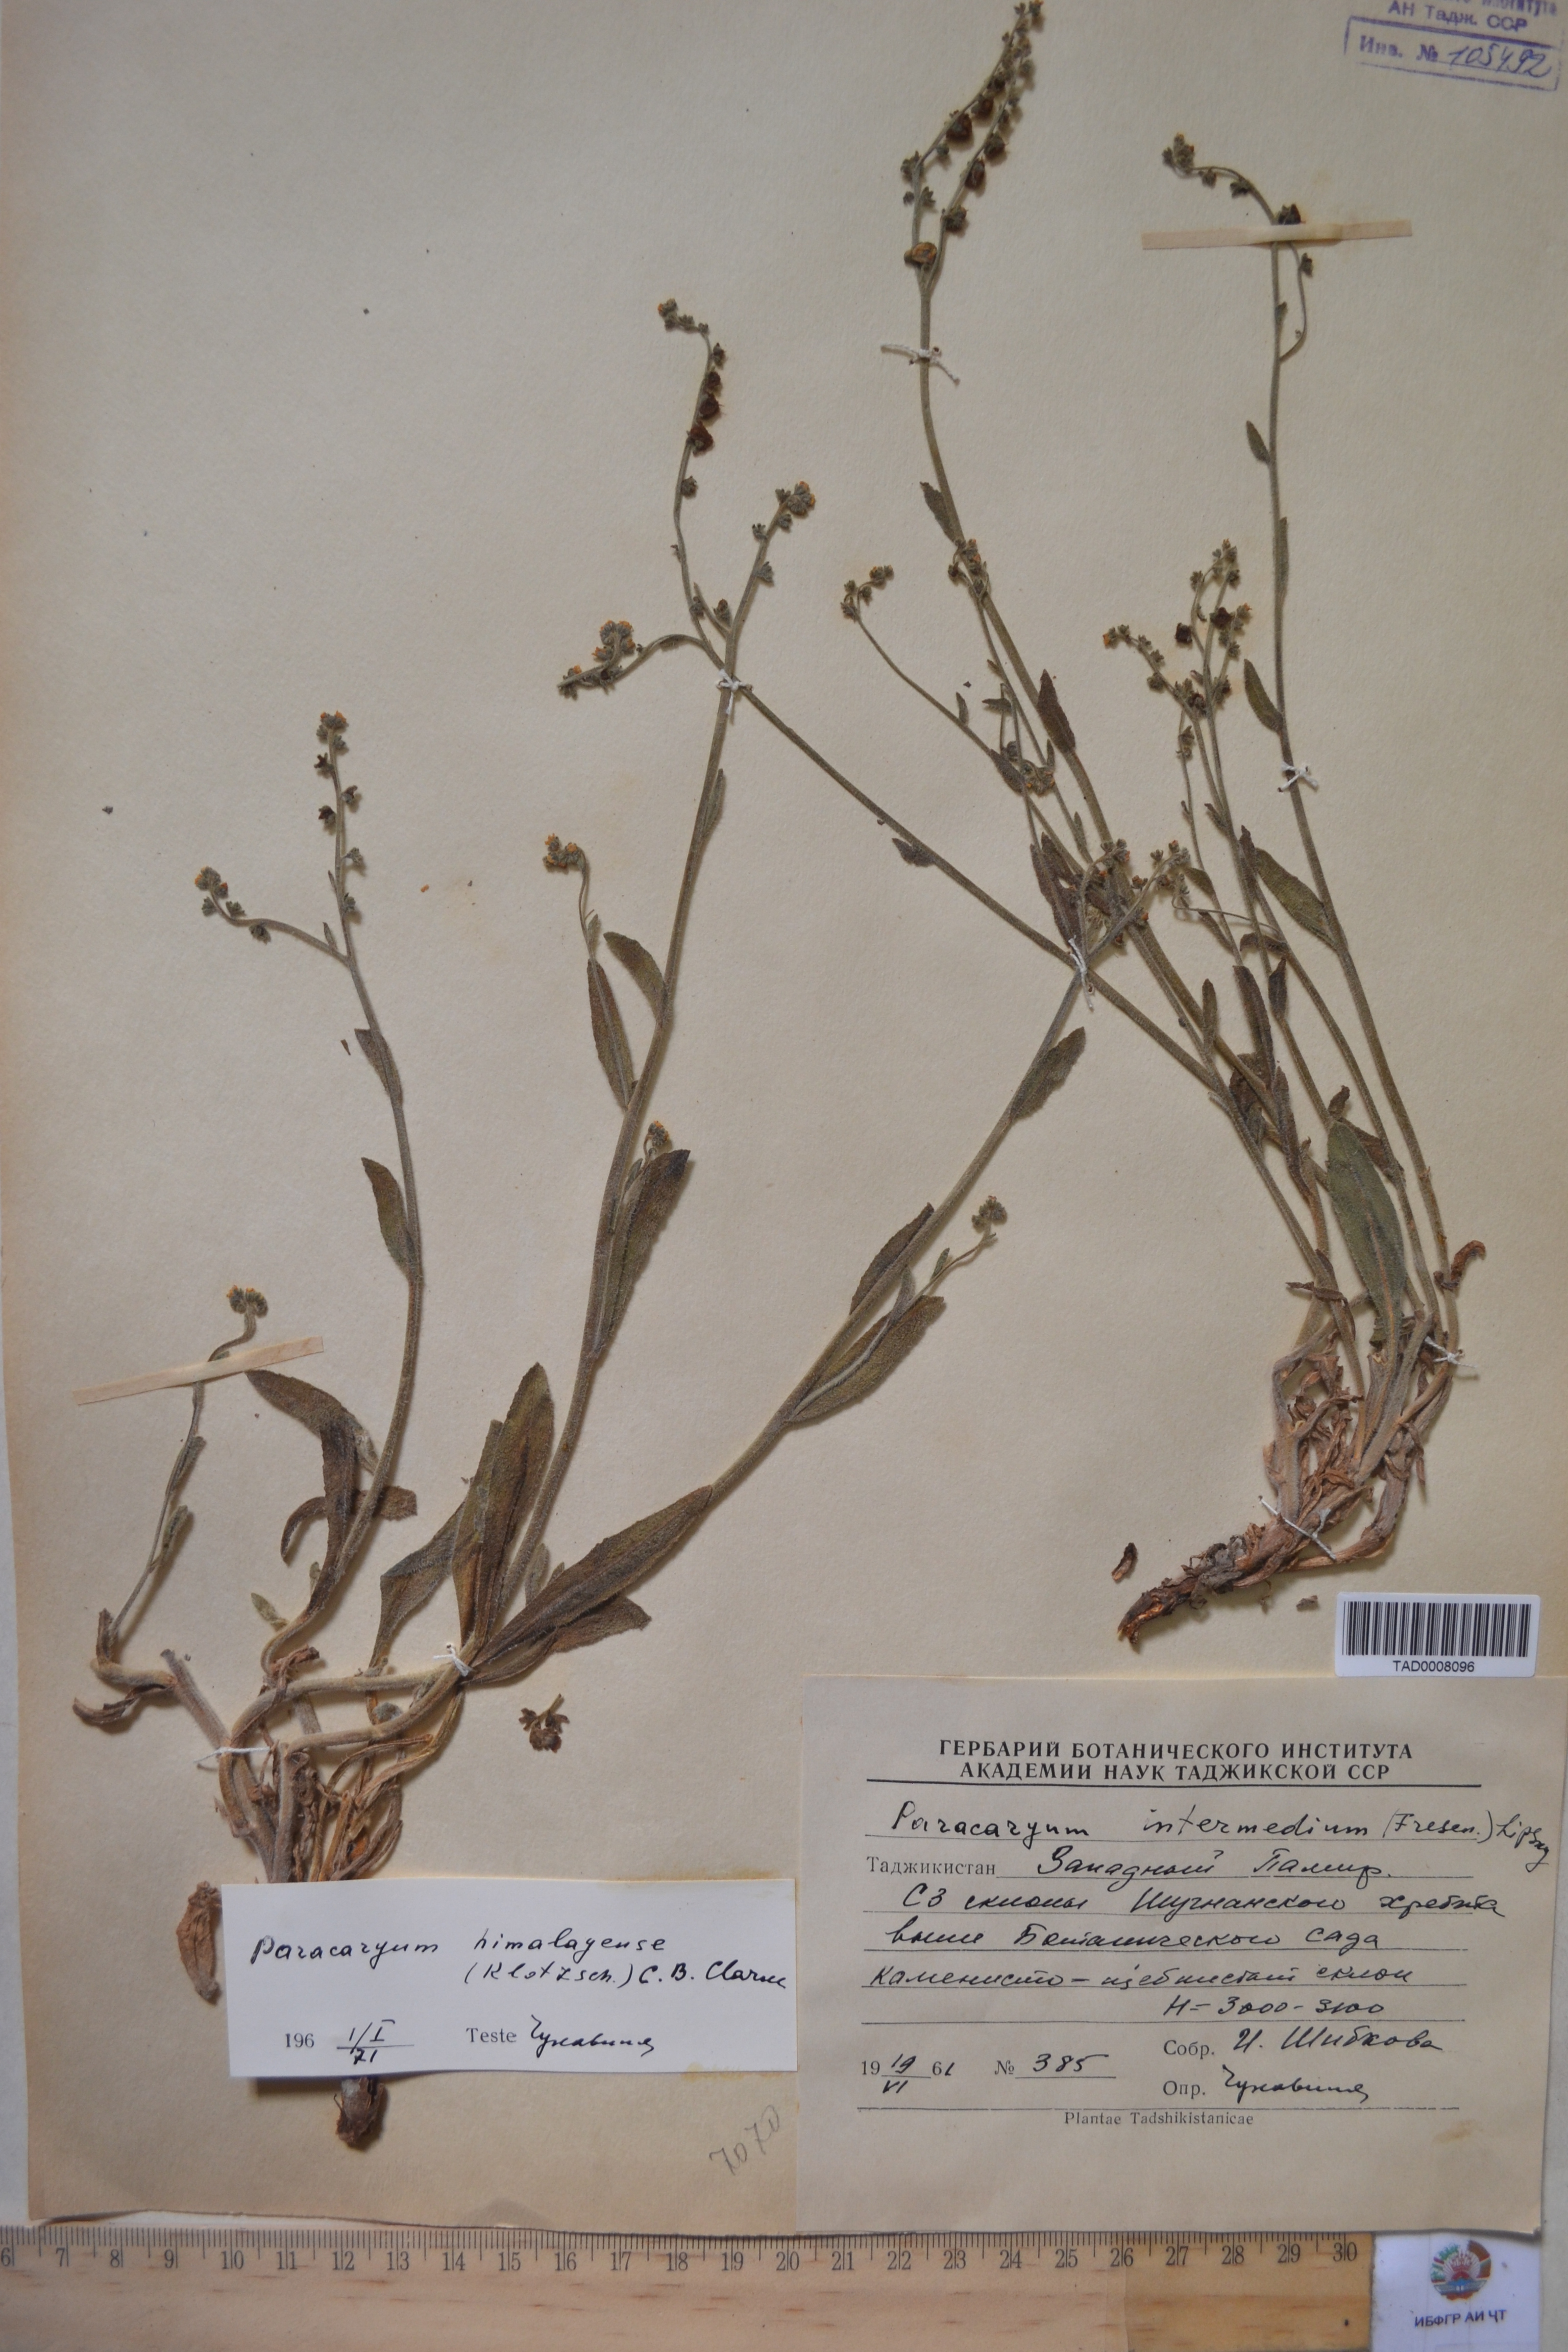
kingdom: Plantae
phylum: Tracheophyta
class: Magnoliopsida
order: Boraginales
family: Boraginaceae
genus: Microparacaryum
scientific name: Microparacaryum intermedium
